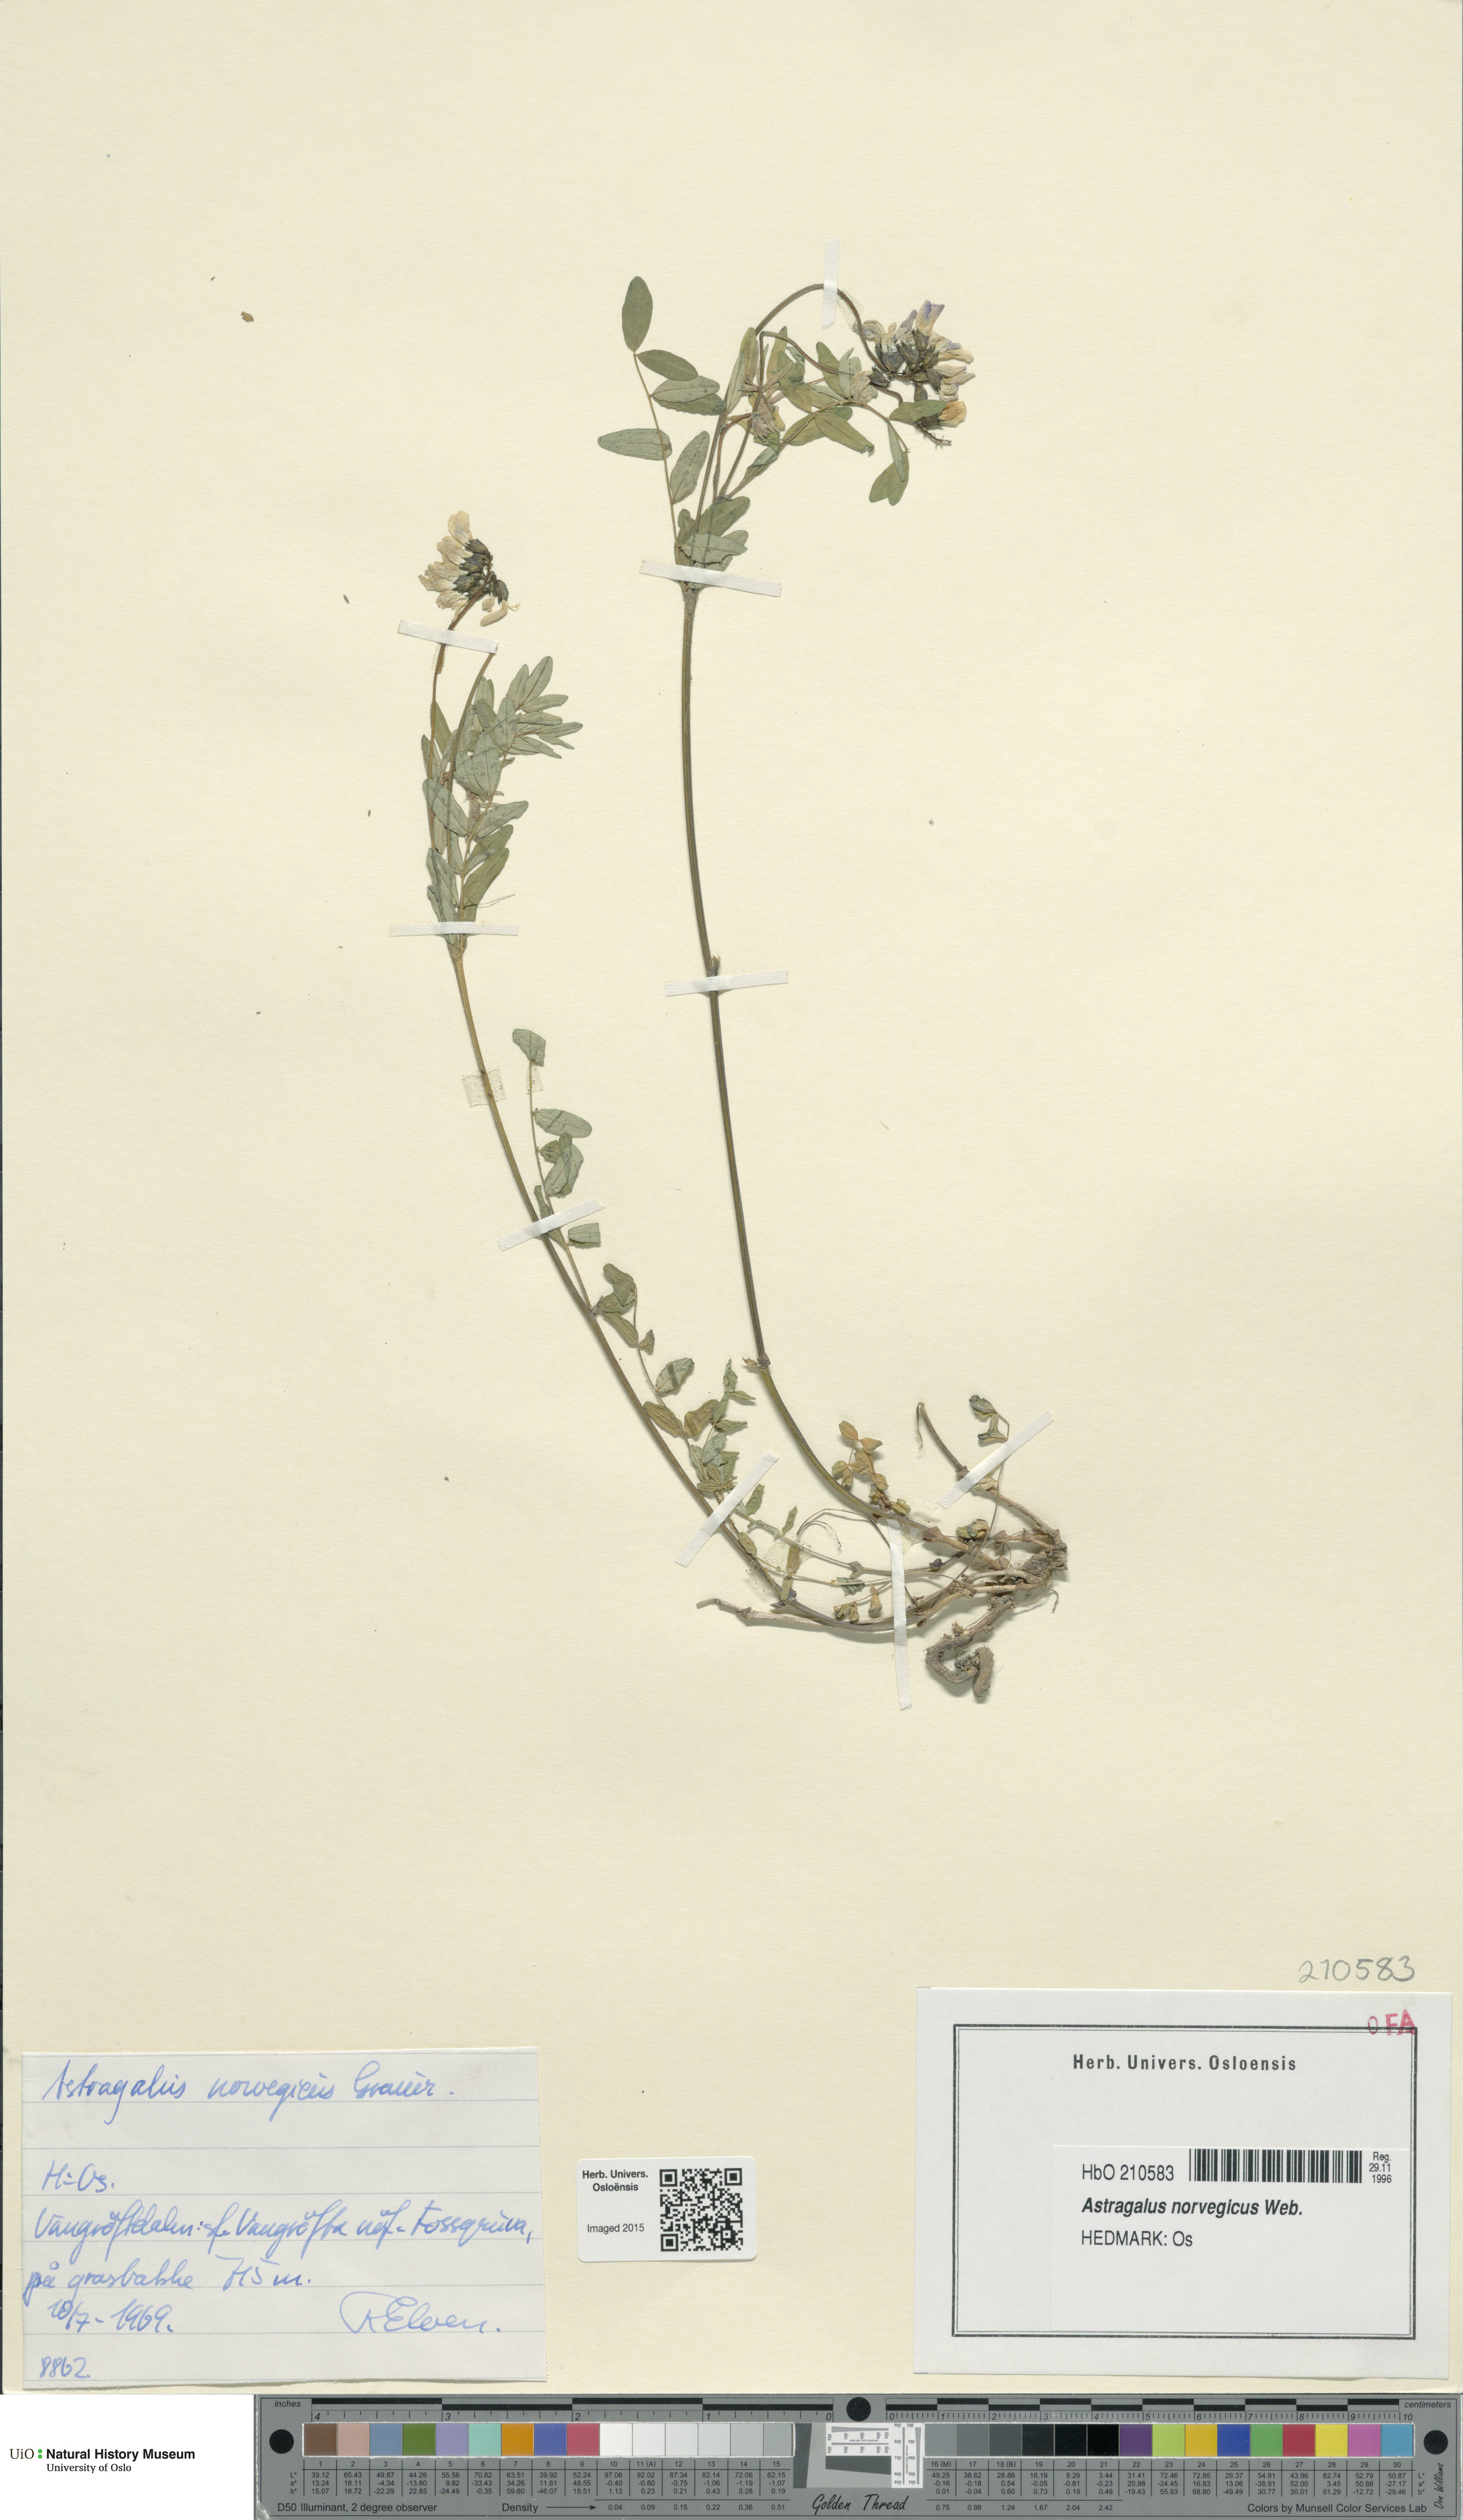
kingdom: Plantae
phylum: Tracheophyta
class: Magnoliopsida
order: Fabales
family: Fabaceae
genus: Astragalus
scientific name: Astragalus norvegicus
